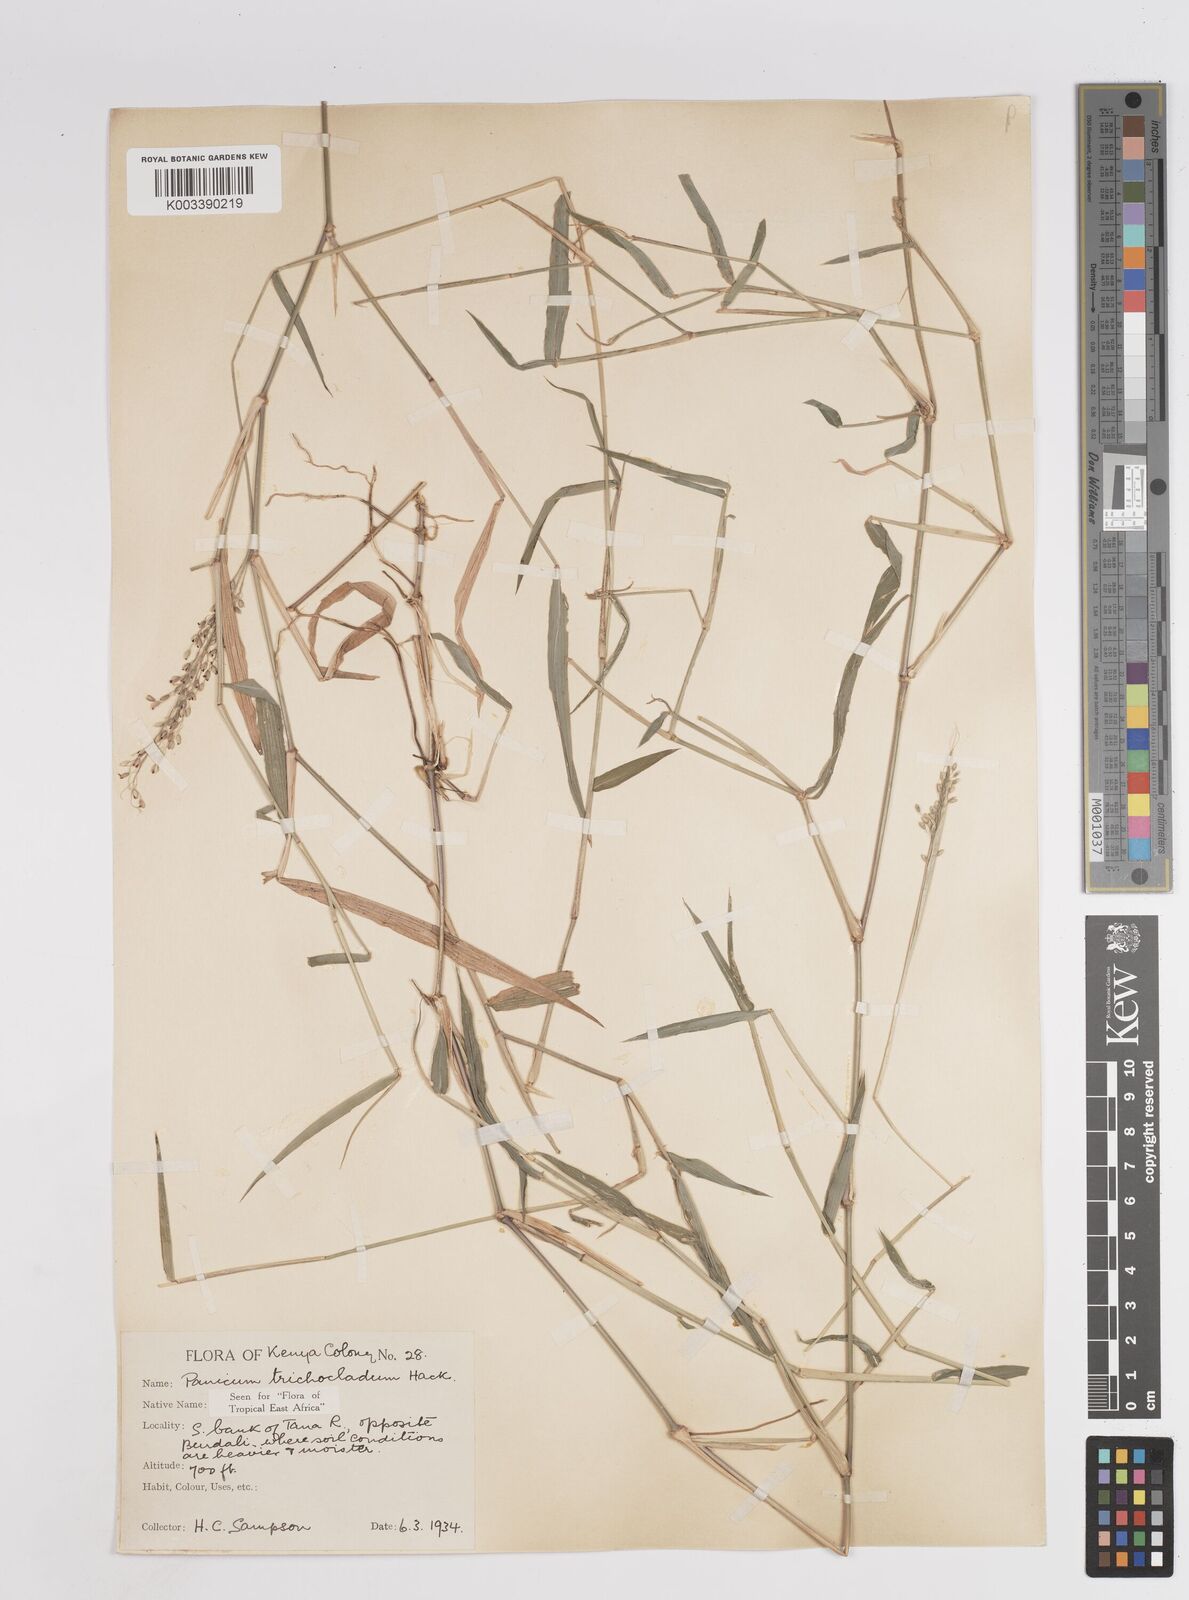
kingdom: Plantae
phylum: Tracheophyta
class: Liliopsida
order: Poales
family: Poaceae
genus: Panicum
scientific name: Panicum trichocladum
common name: Donkey grass
